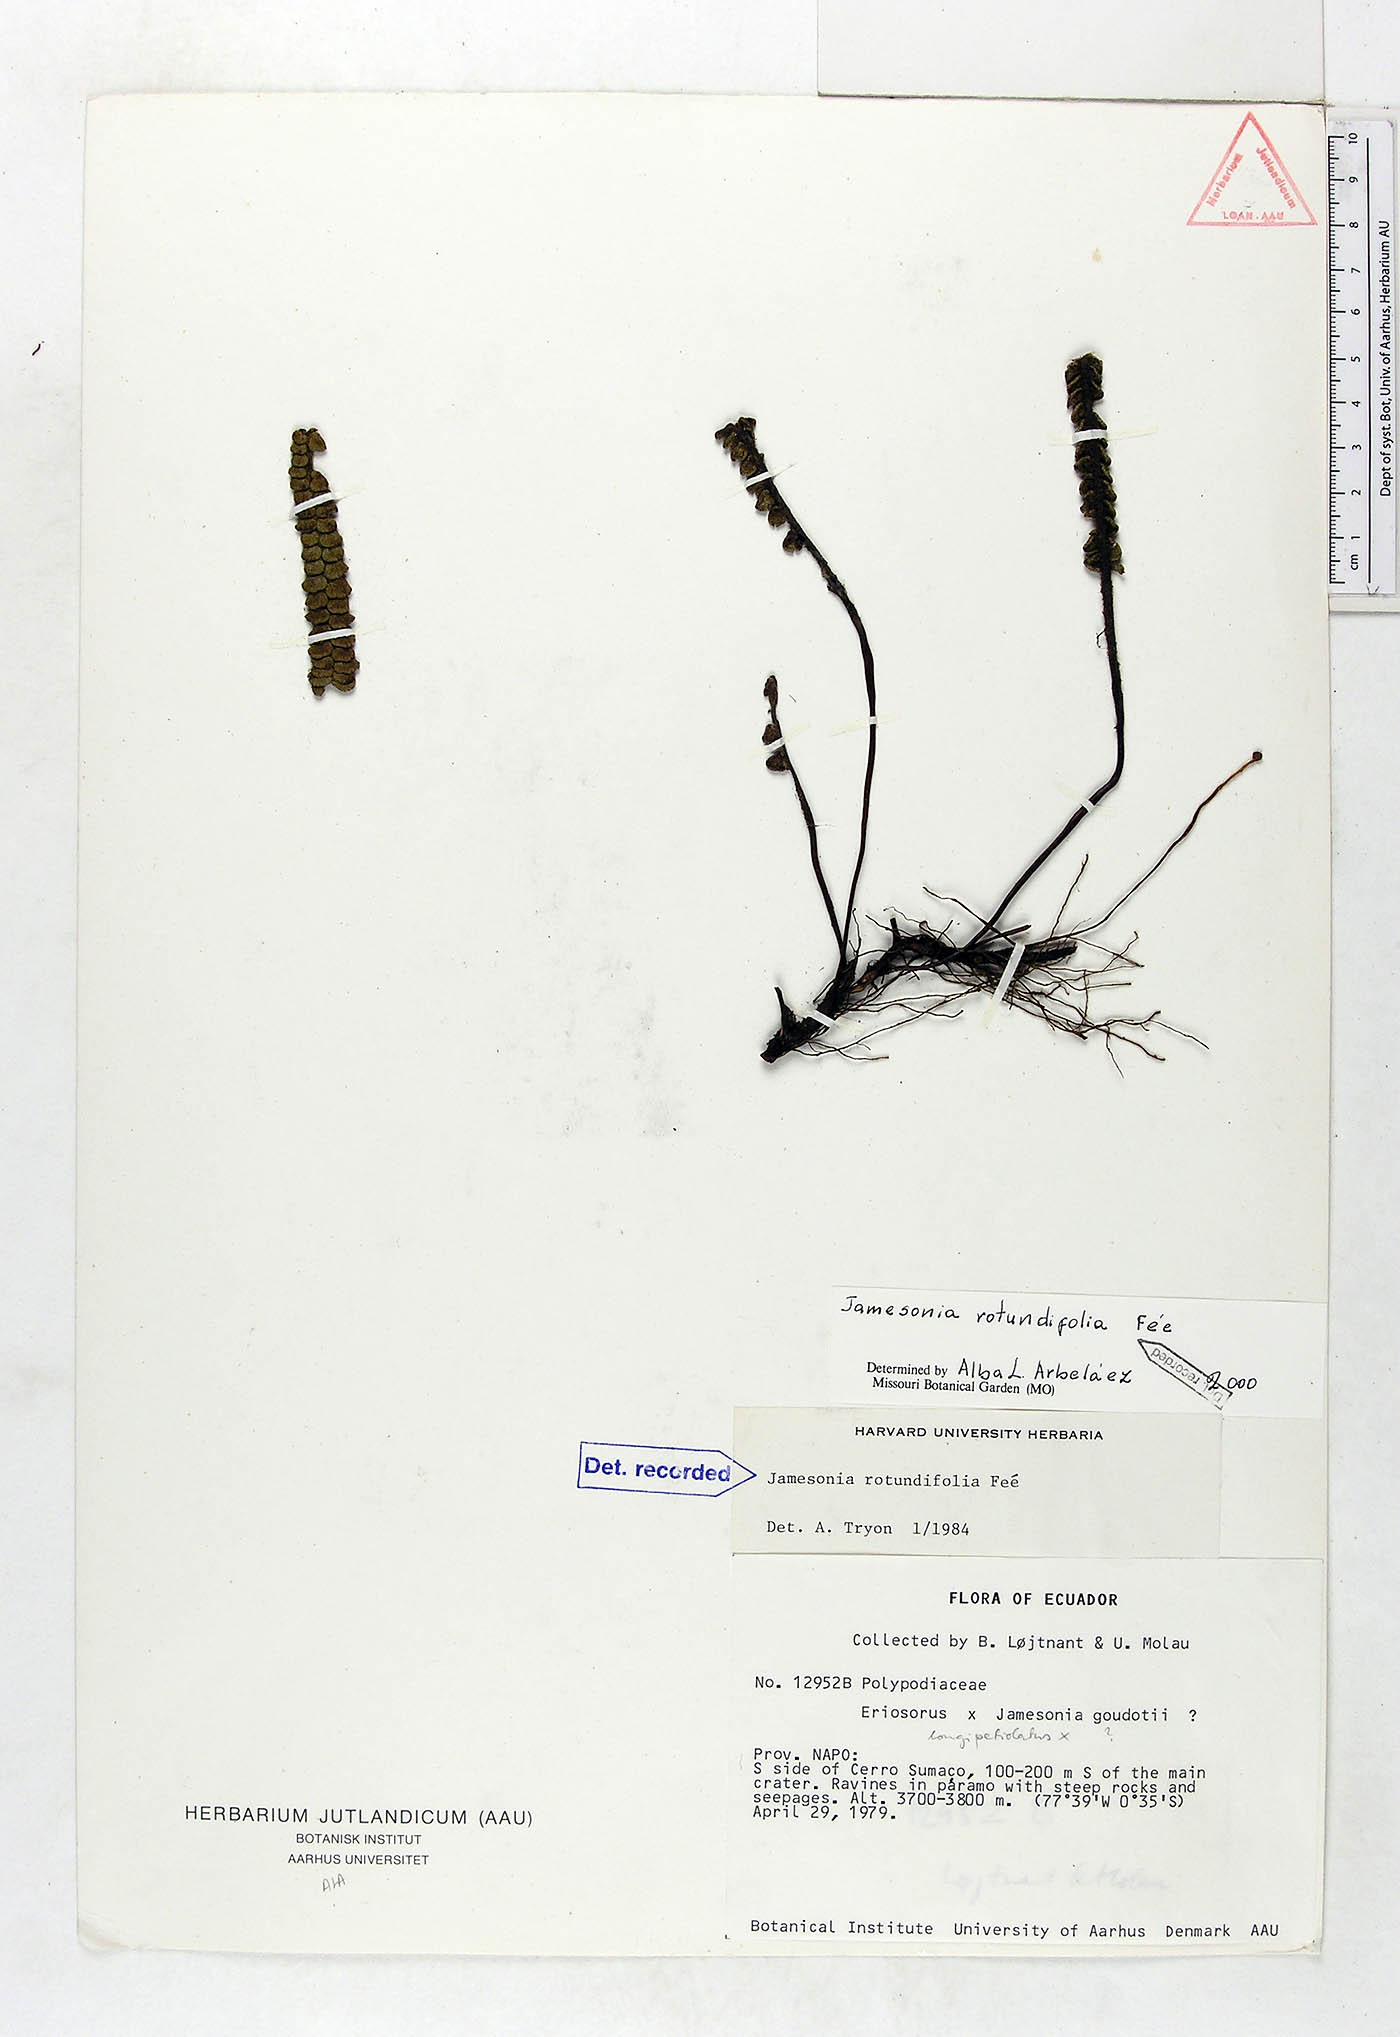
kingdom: Plantae
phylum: Tracheophyta
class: Polypodiopsida
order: Polypodiales
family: Pteridaceae
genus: Jamesonia
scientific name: Jamesonia rotundifolia
